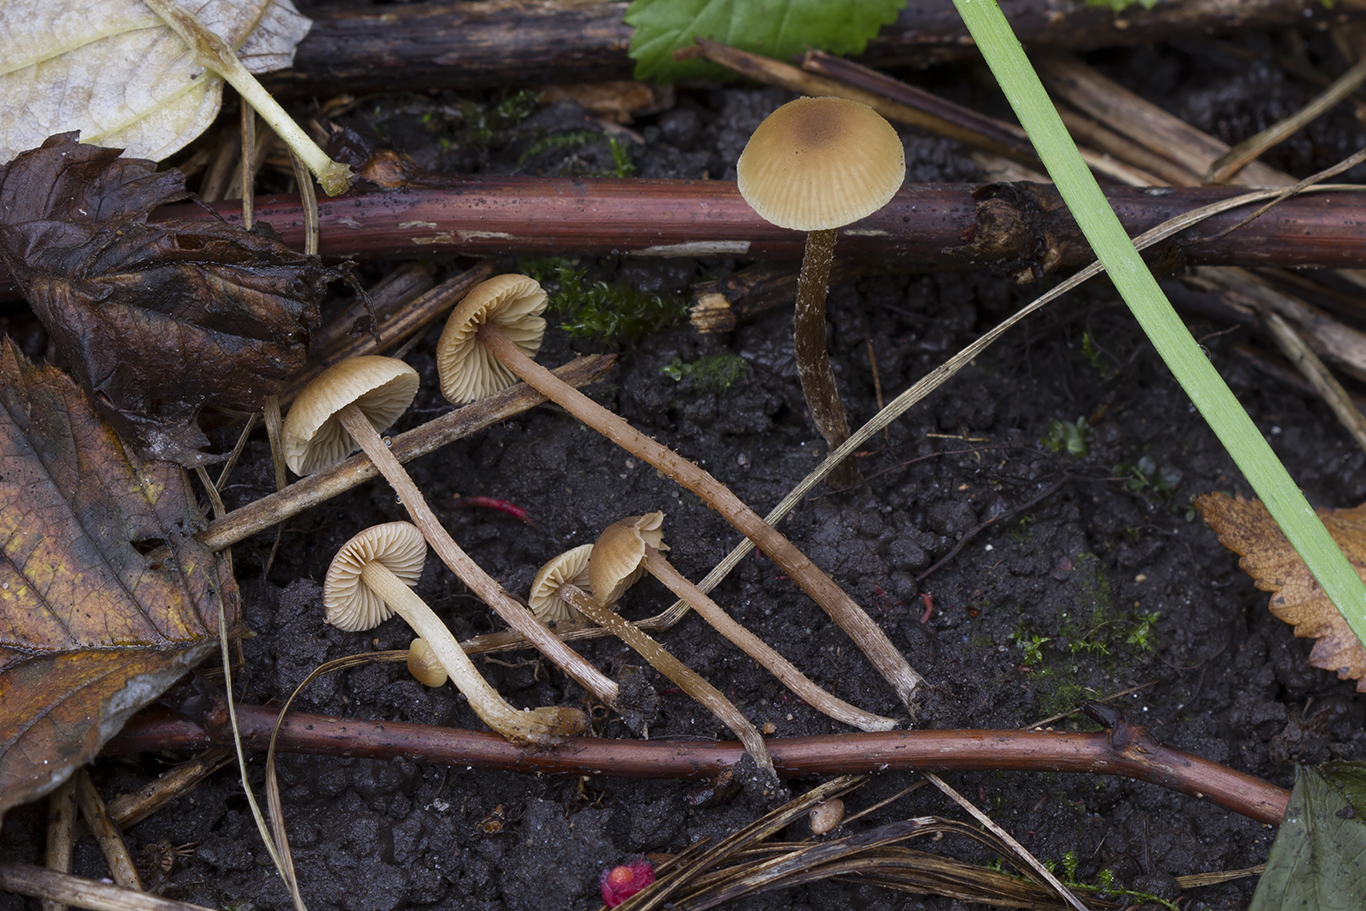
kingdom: Fungi
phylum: Basidiomycota
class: Agaricomycetes
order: Agaricales
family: Hymenogastraceae
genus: Alnicola
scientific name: Alnicola longicystis
